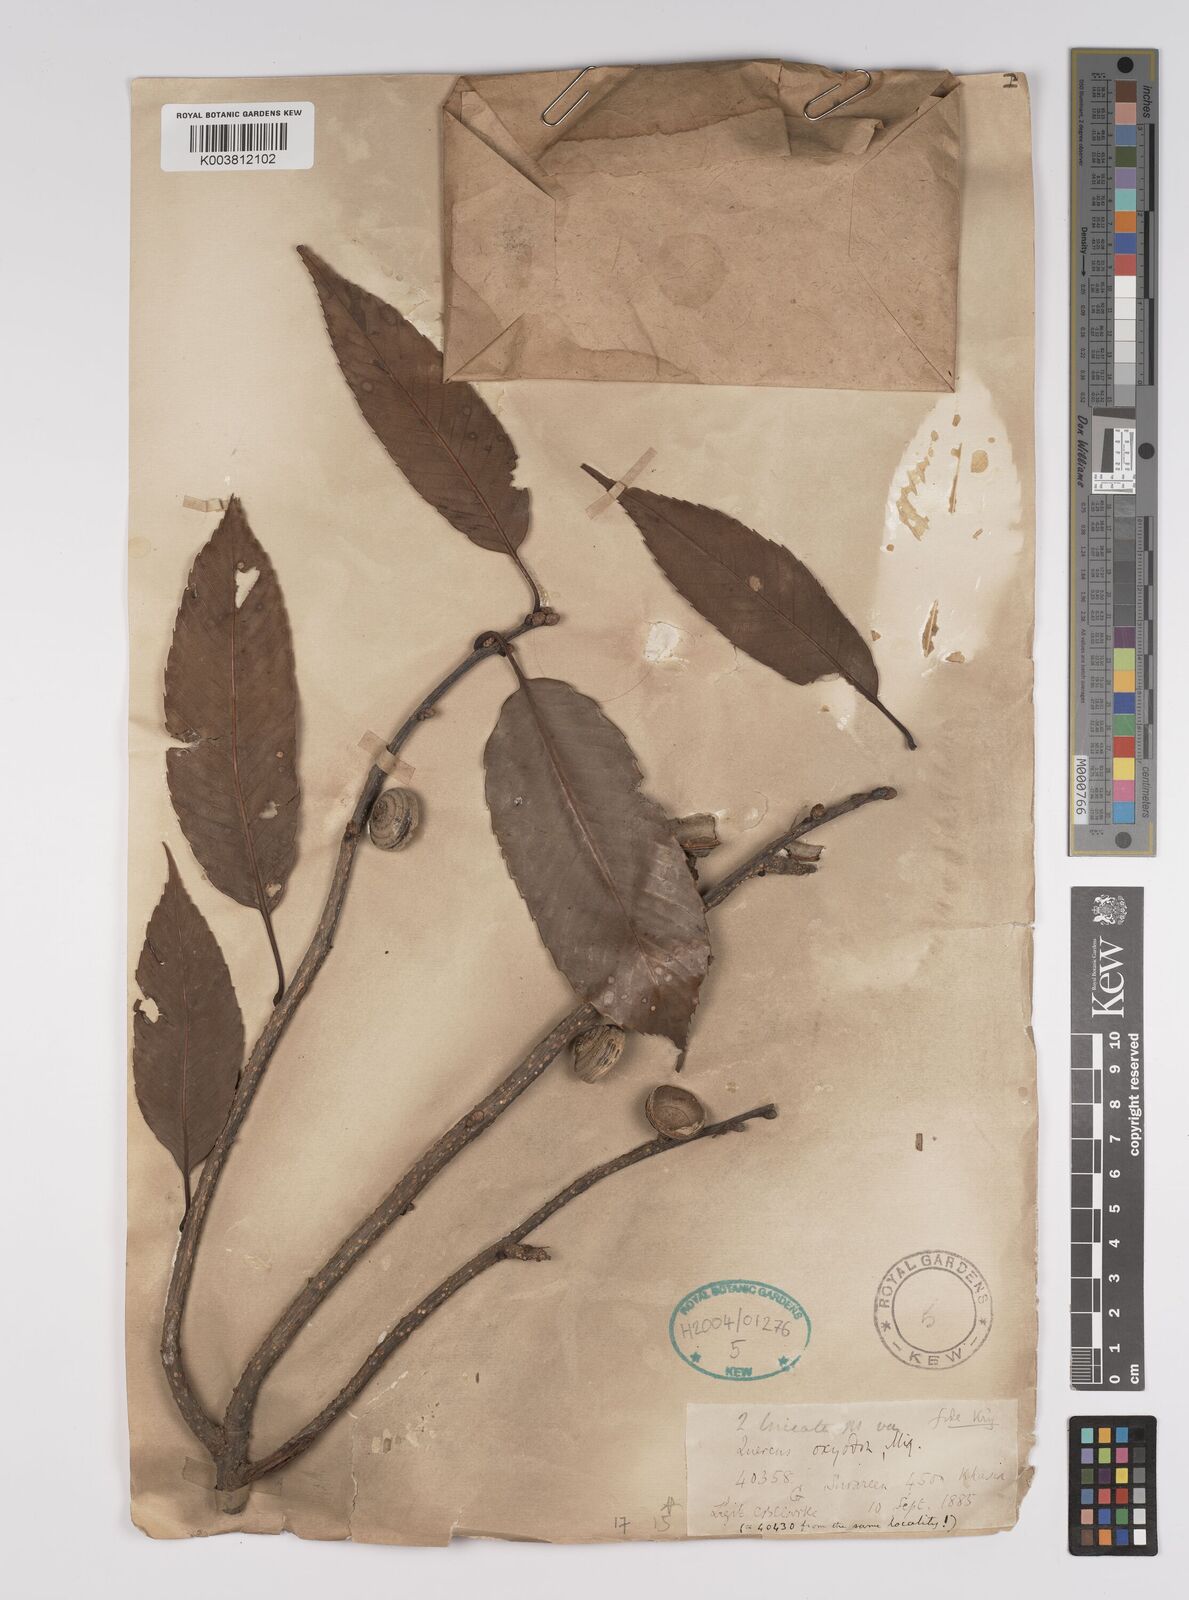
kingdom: Plantae
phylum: Tracheophyta
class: Magnoliopsida
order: Fagales
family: Fagaceae
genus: Quercus
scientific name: Quercus oxyodon
